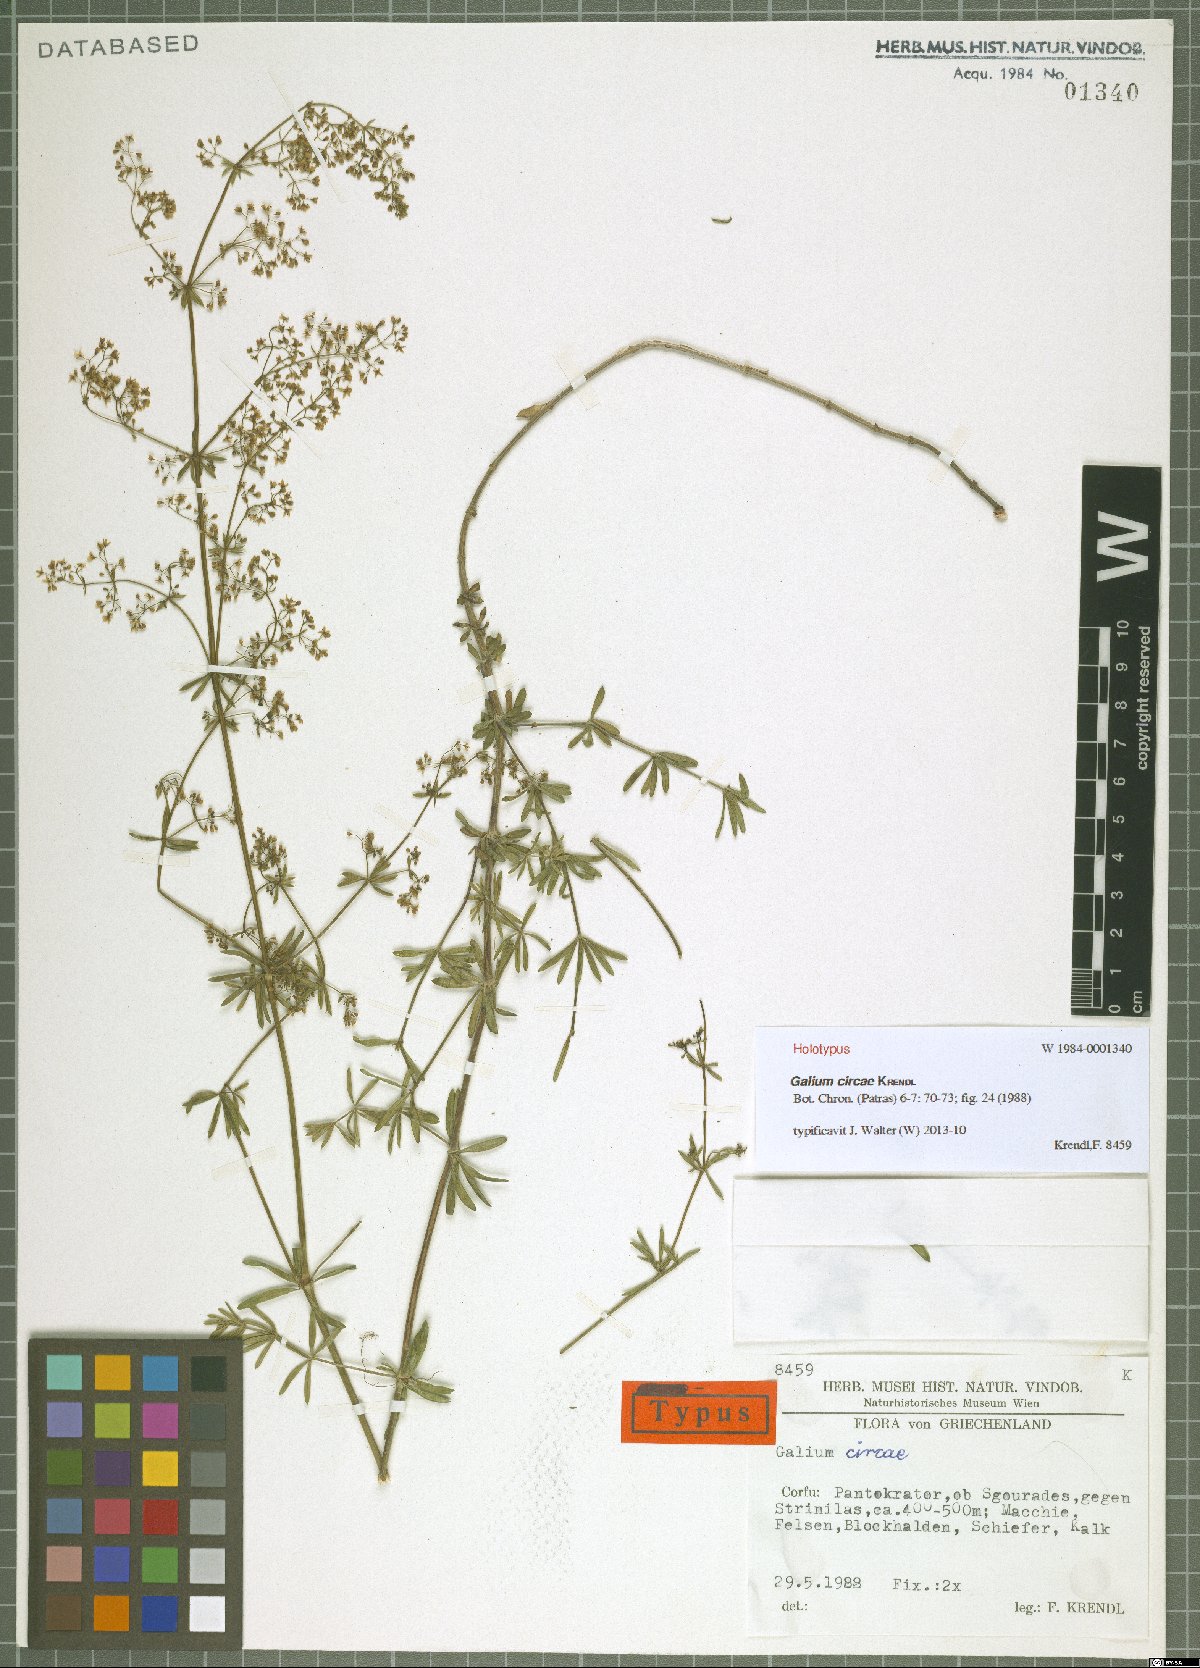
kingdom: Plantae
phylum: Tracheophyta
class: Magnoliopsida
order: Gentianales
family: Rubiaceae
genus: Galium
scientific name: Galium circae
